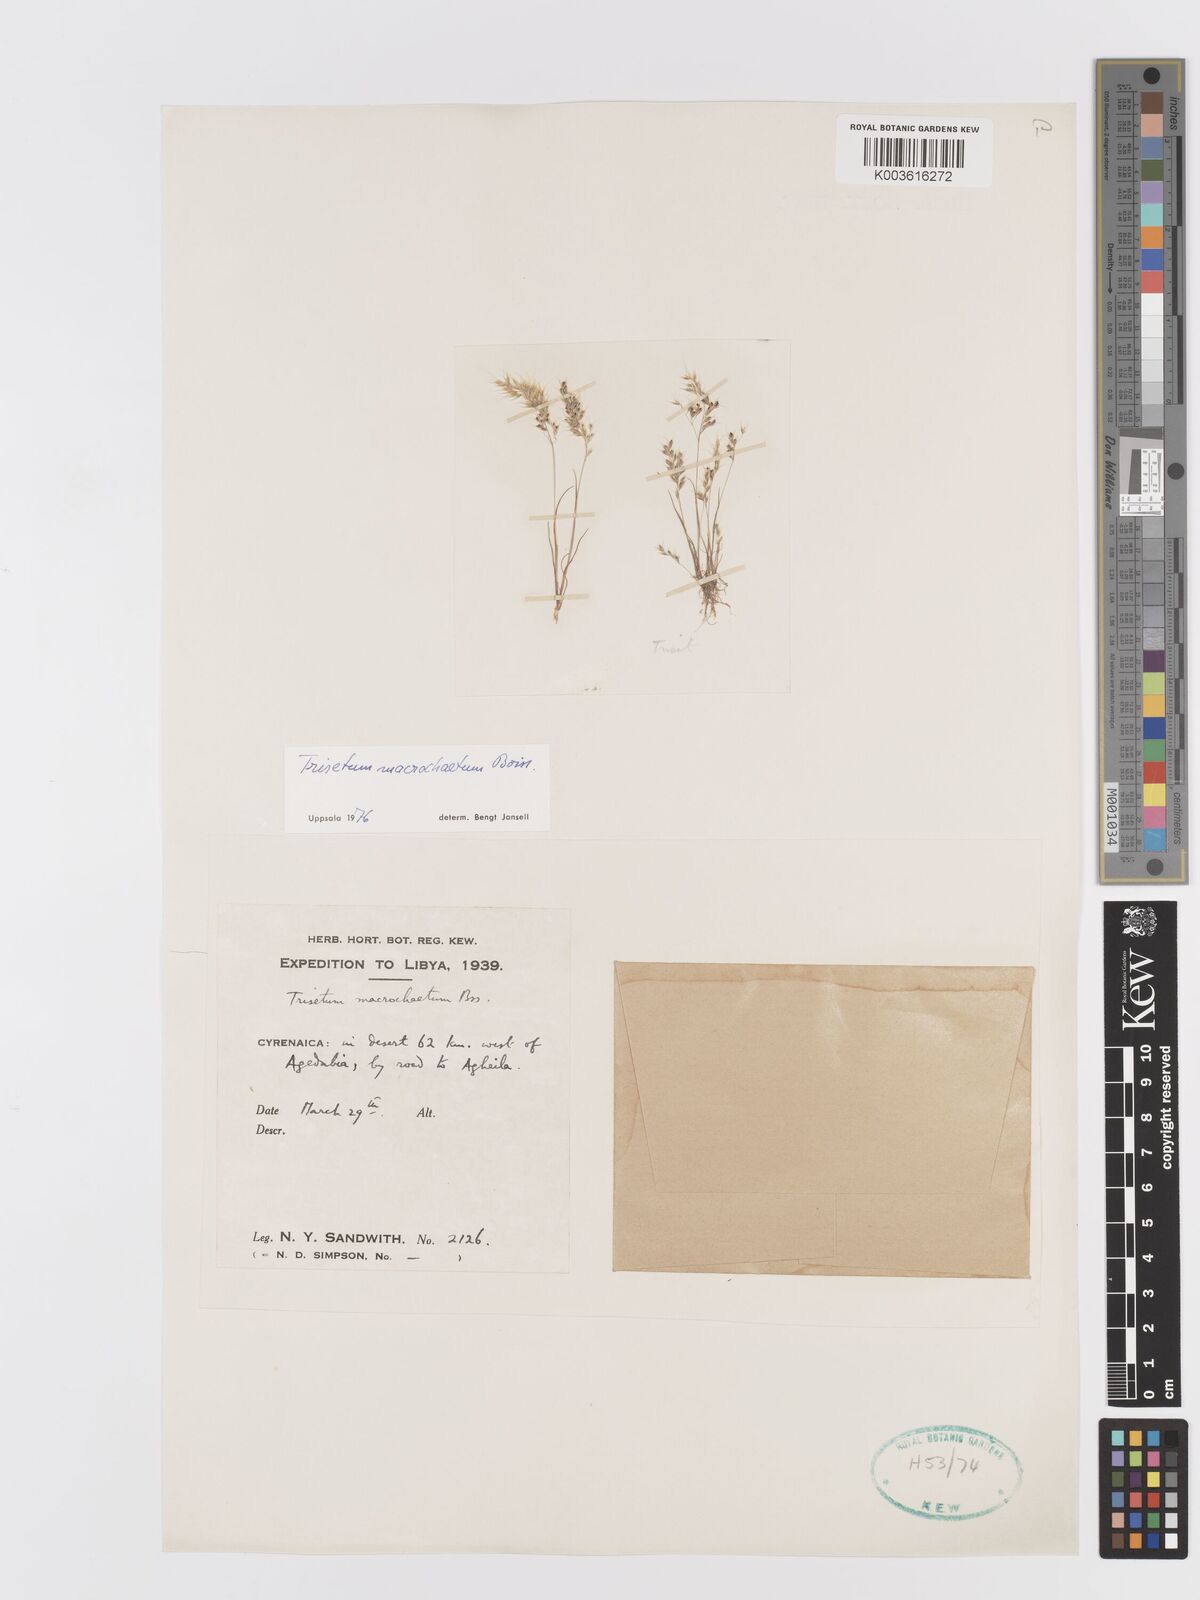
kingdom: Plantae
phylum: Tracheophyta
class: Liliopsida
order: Poales
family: Poaceae
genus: Trisetaria
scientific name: Trisetaria macrochaeta
